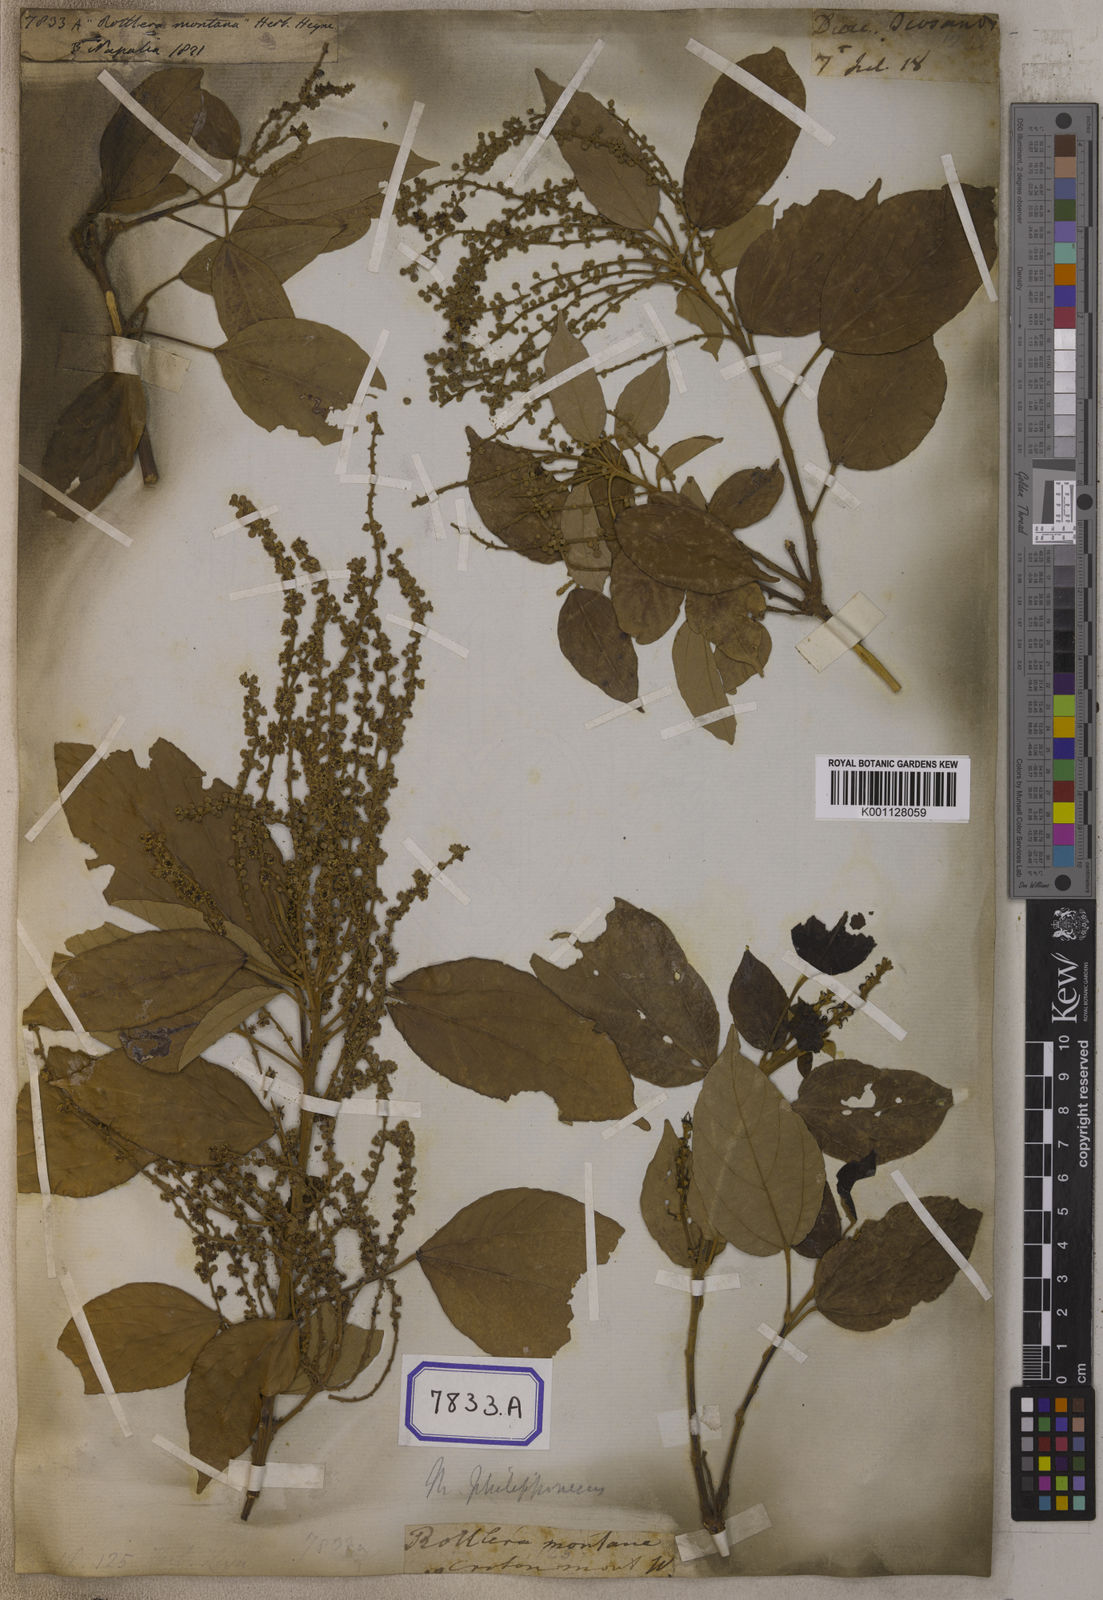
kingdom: Plantae
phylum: Tracheophyta
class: Magnoliopsida
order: Malpighiales
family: Euphorbiaceae
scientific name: Euphorbiaceae
